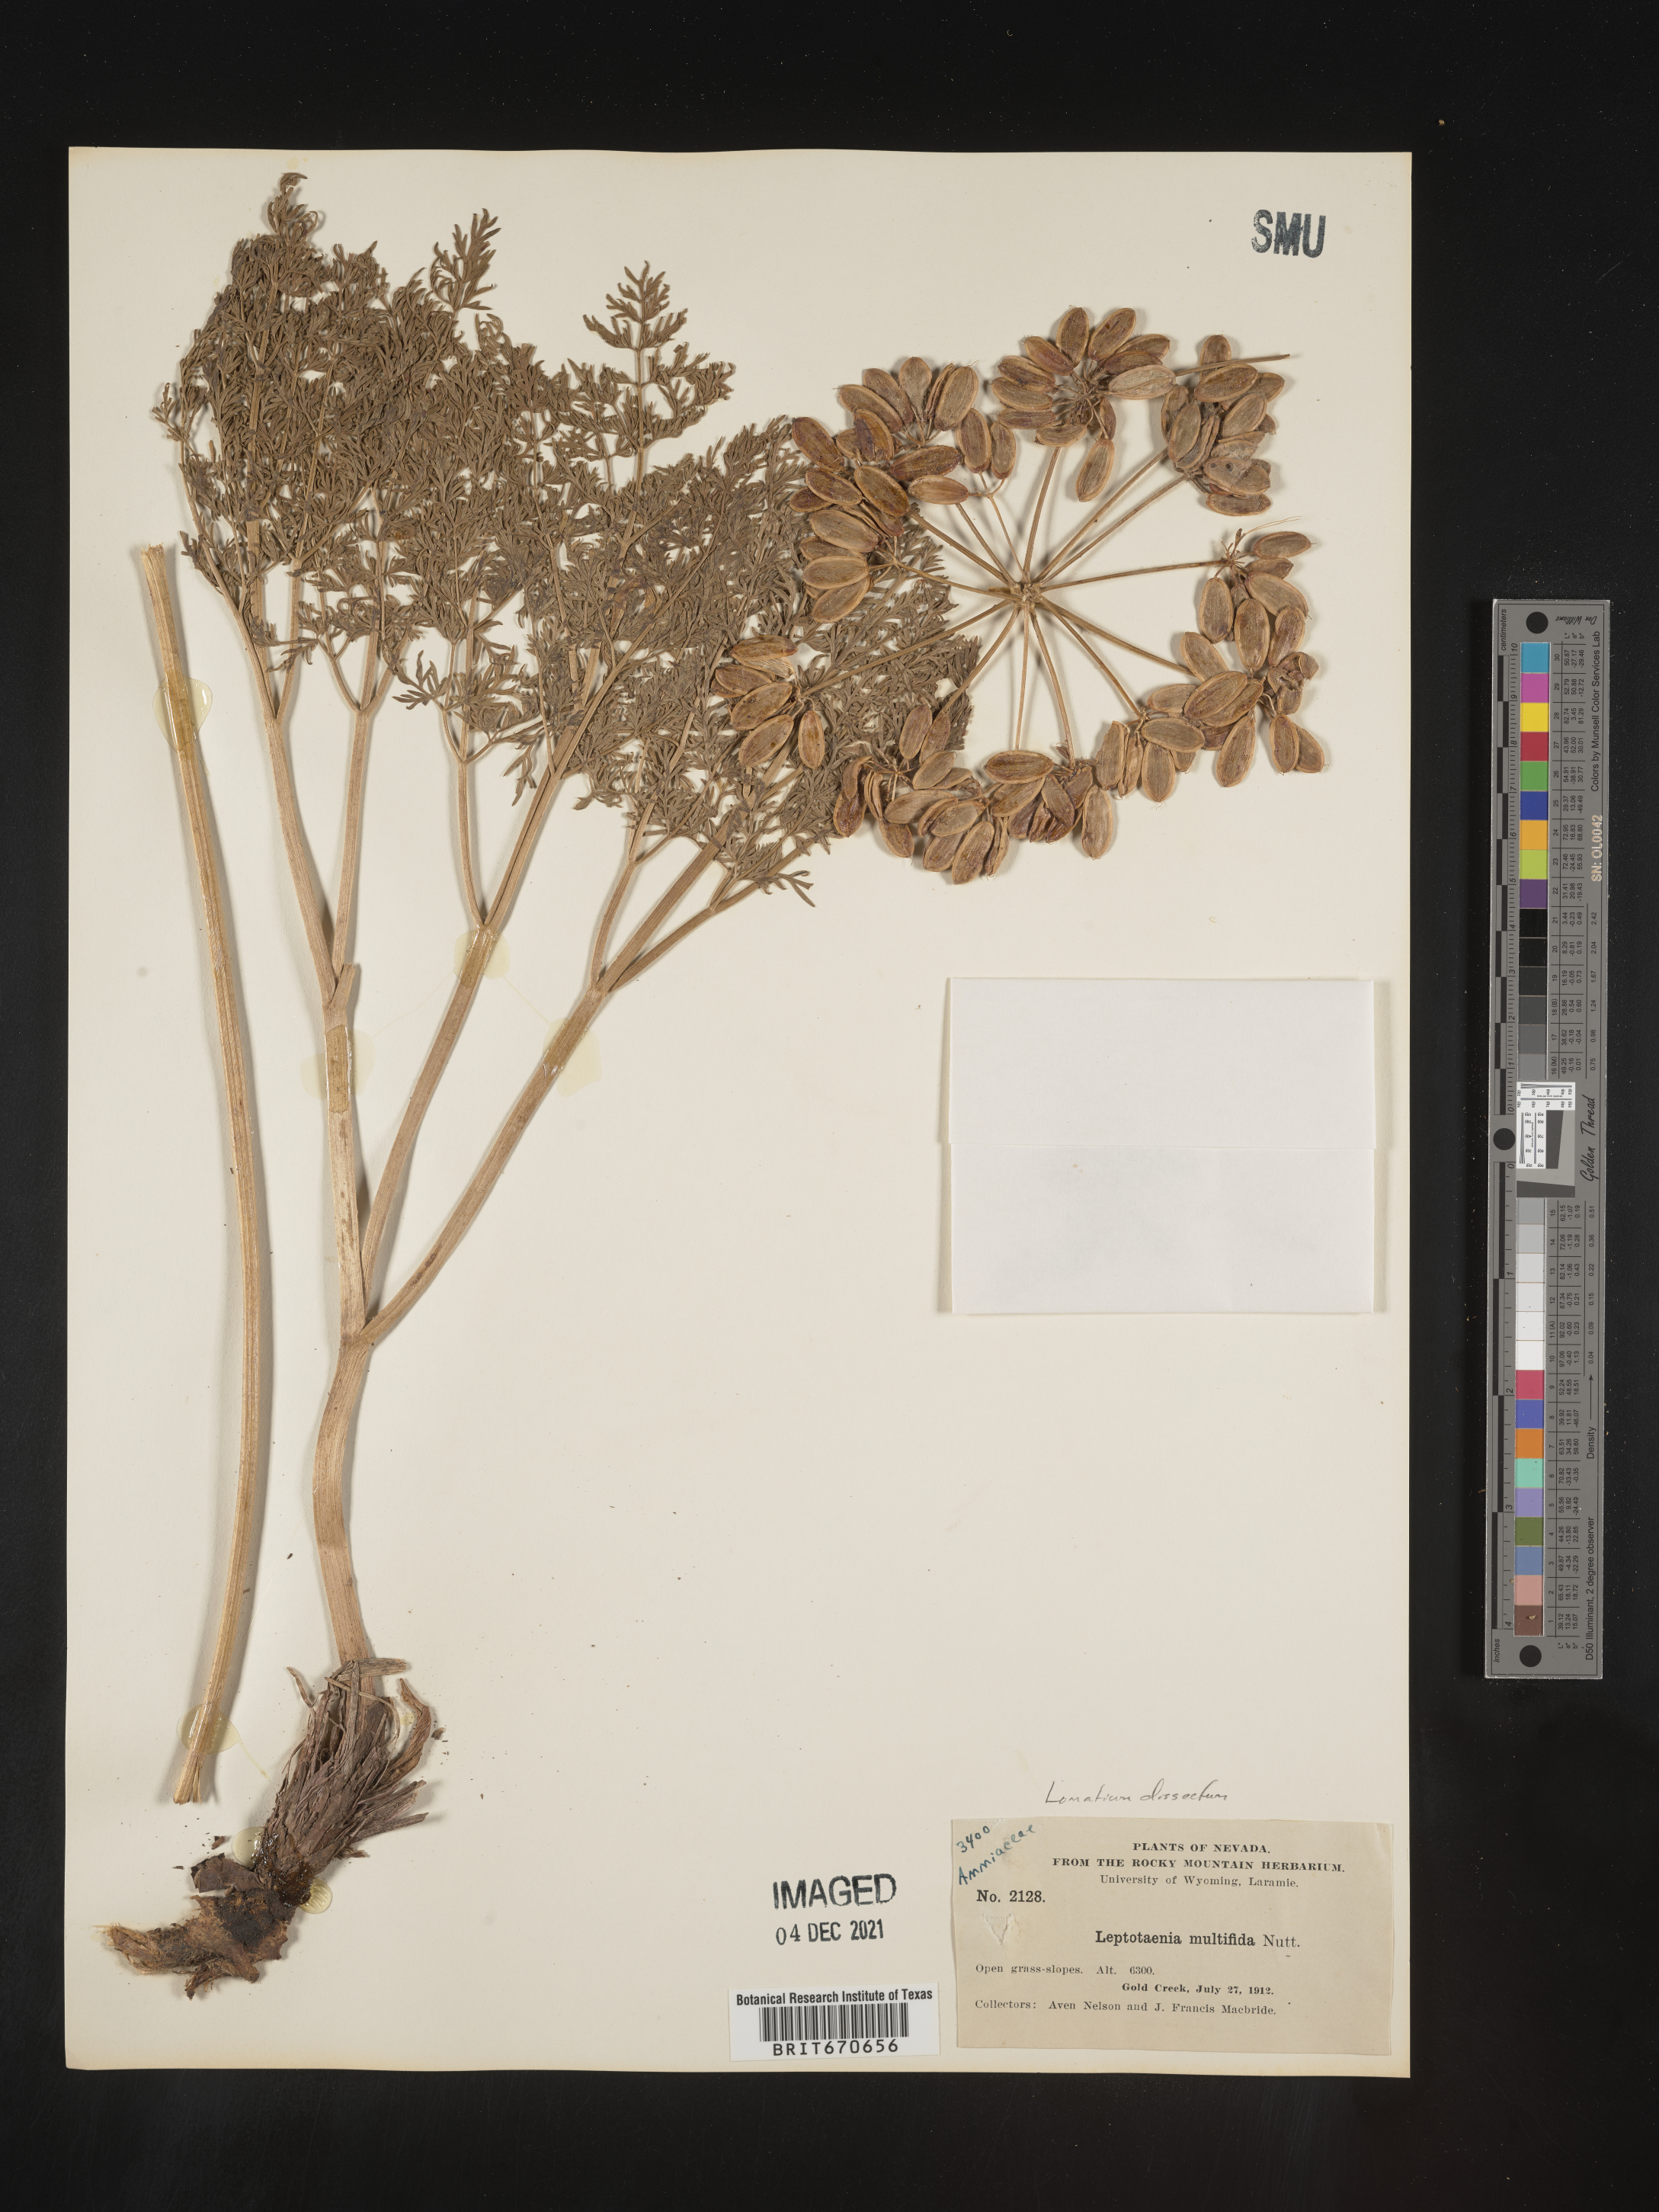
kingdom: Plantae
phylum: Tracheophyta
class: Magnoliopsida
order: Apiales
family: Apiaceae
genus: Lomatium
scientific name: Lomatium dissectum
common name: Lomatium
